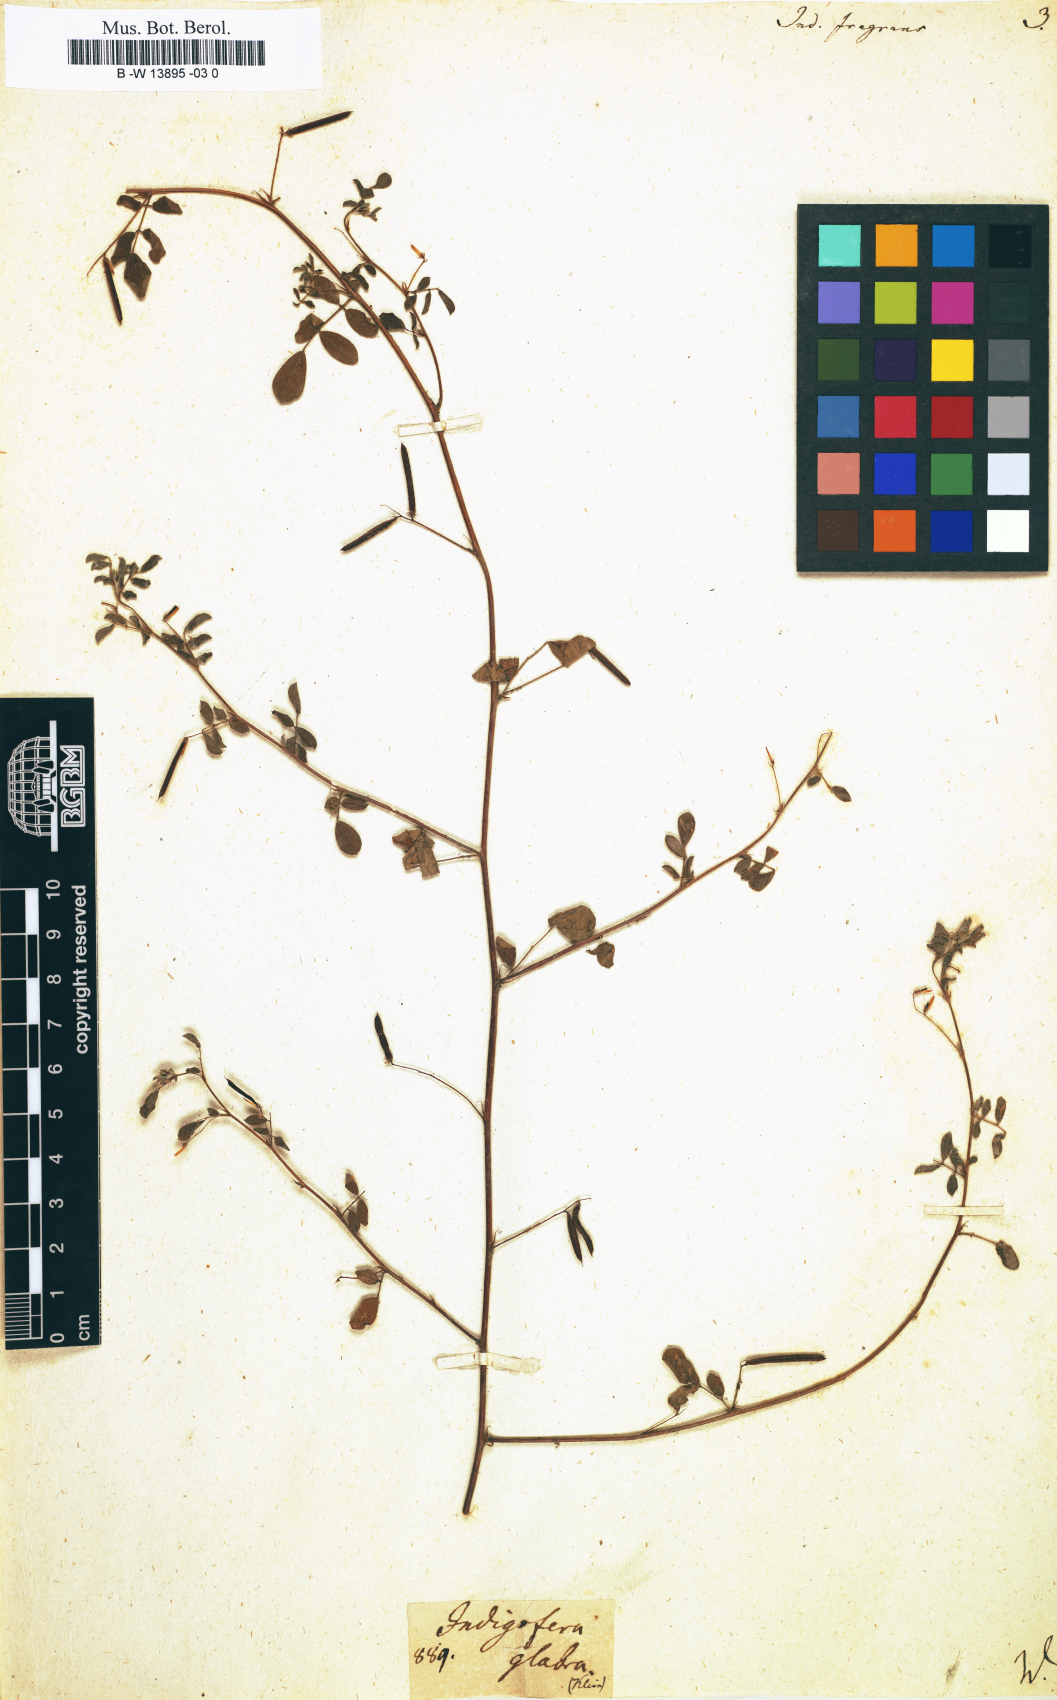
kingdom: Plantae
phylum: Tracheophyta
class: Magnoliopsida
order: Fabales
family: Fabaceae
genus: Indigofera
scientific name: Indigofera glabra
